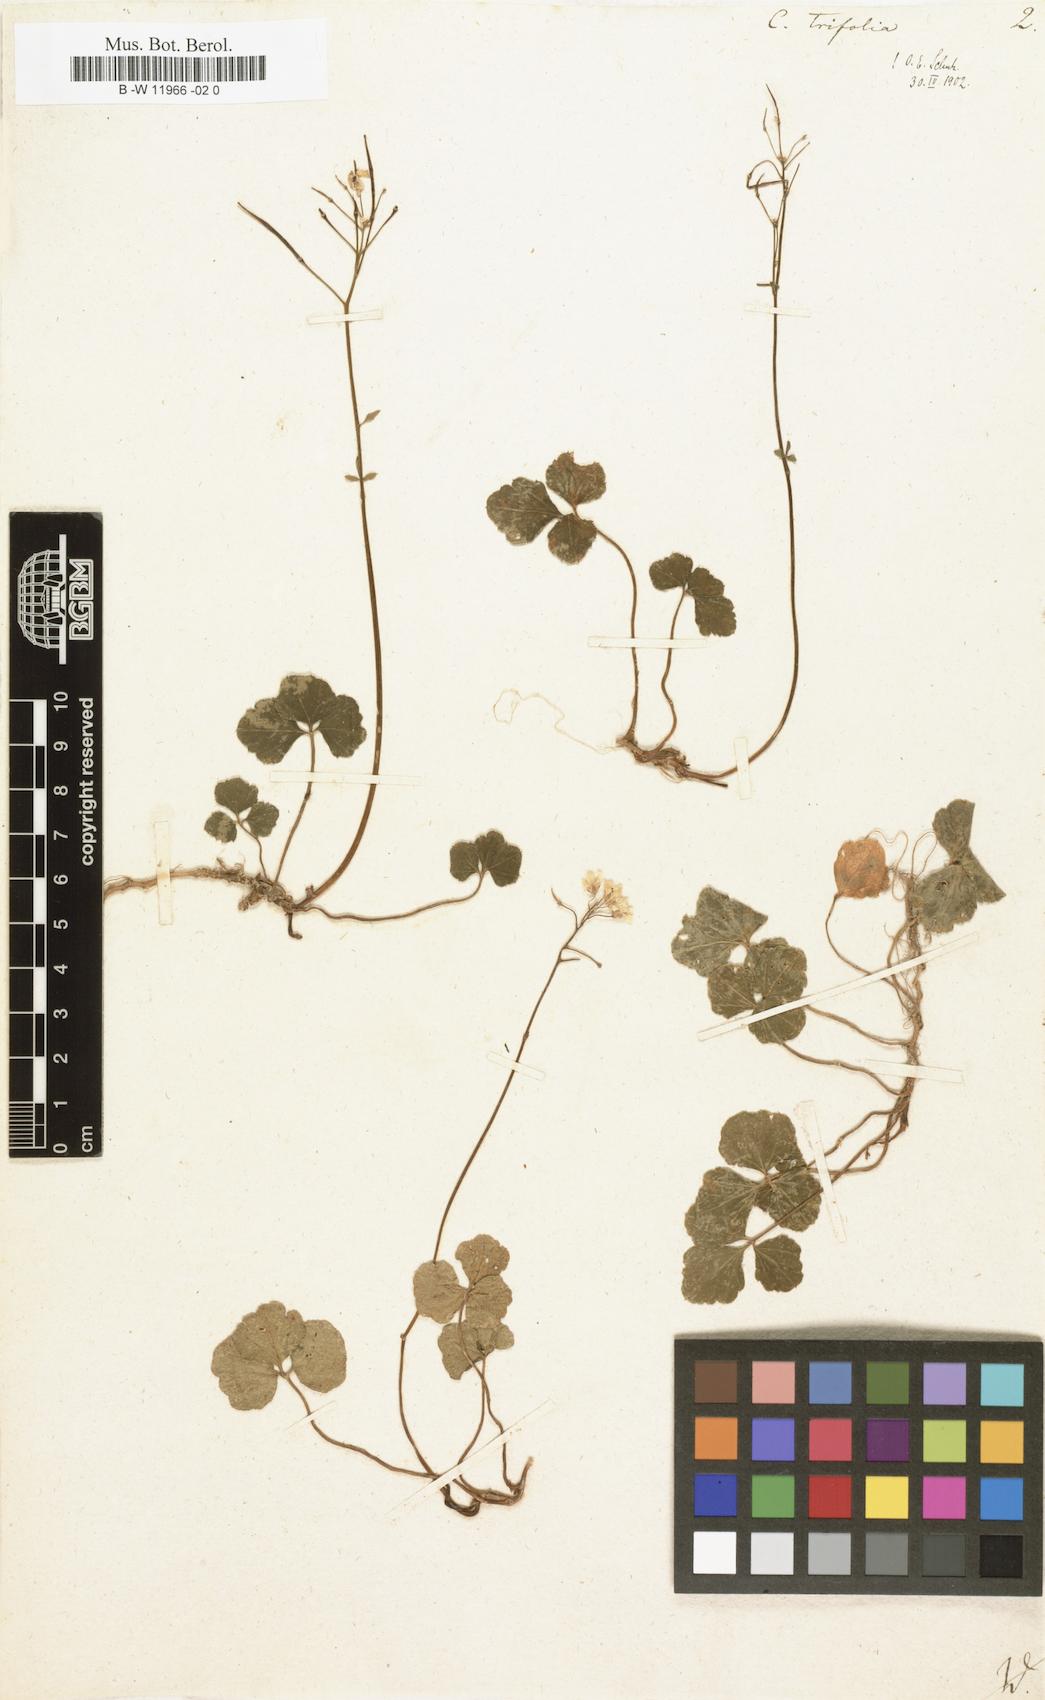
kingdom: Plantae
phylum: Tracheophyta
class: Magnoliopsida
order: Brassicales
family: Brassicaceae
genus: Cardamine
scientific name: Cardamine trifolia
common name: Trefoil cress
